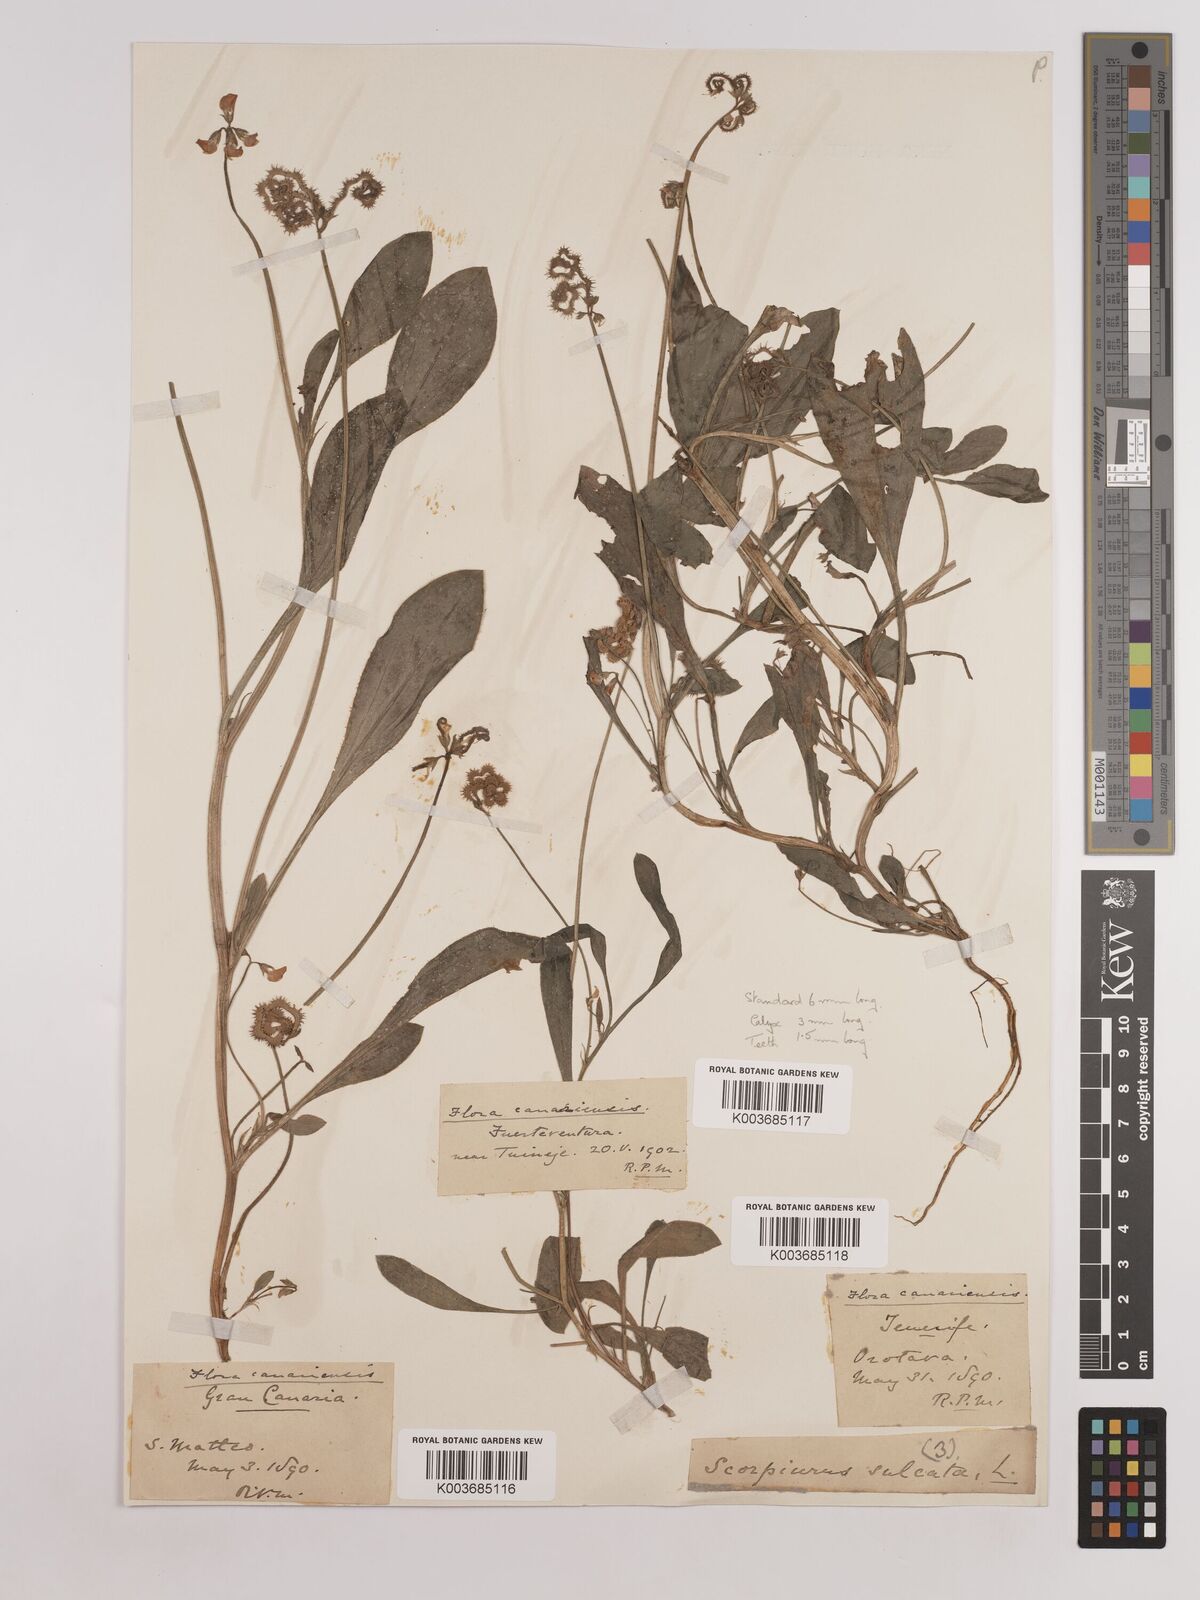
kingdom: Plantae
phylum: Tracheophyta
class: Magnoliopsida
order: Fabales
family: Fabaceae
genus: Scorpiurus
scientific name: Scorpiurus muricatus
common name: Caterpillar-plant
